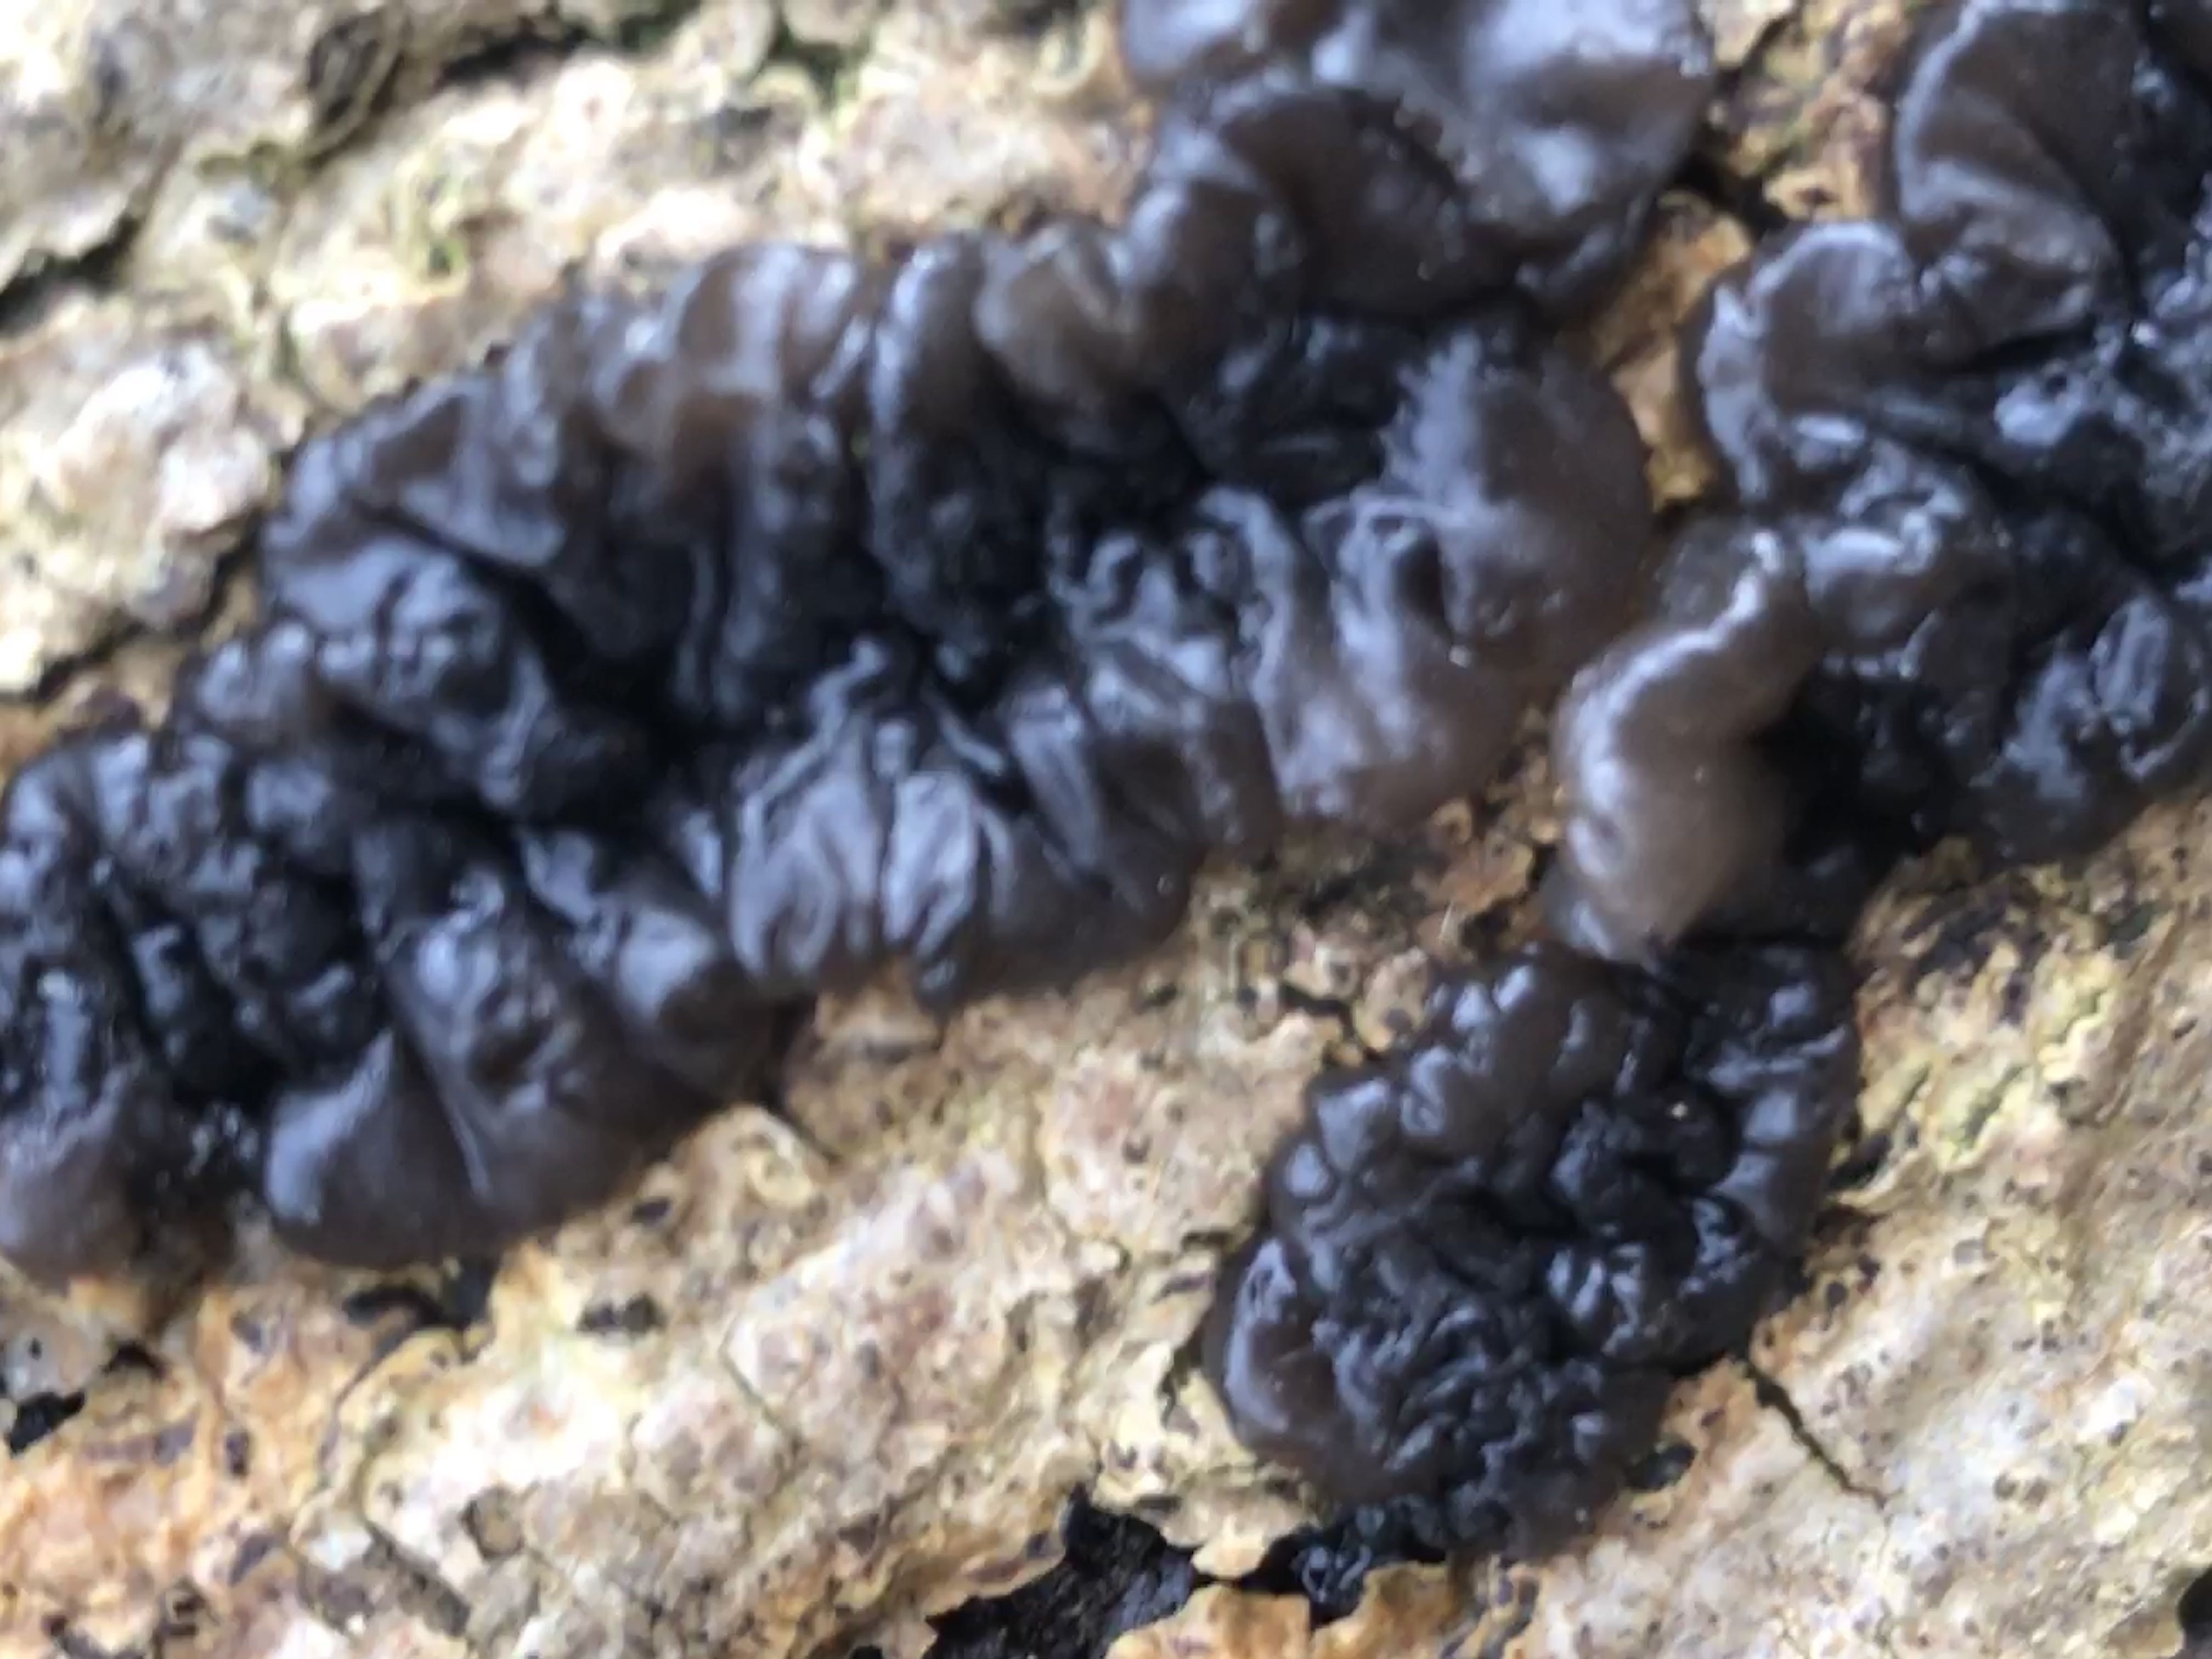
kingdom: Fungi
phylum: Basidiomycota
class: Agaricomycetes
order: Auriculariales
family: Auriculariaceae
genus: Exidia
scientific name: Exidia nigricans
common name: almindelig bævretop
